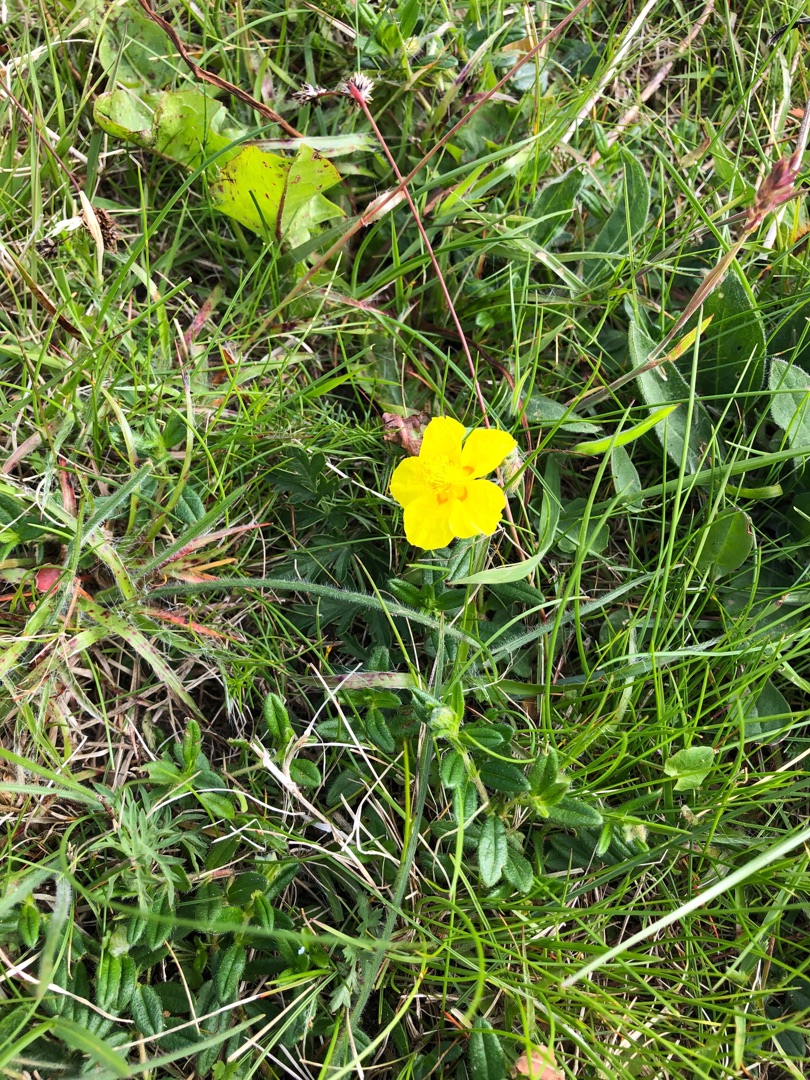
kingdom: Plantae
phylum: Tracheophyta
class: Magnoliopsida
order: Malvales
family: Cistaceae
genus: Helianthemum
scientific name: Helianthemum nummularium
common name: Soløje
